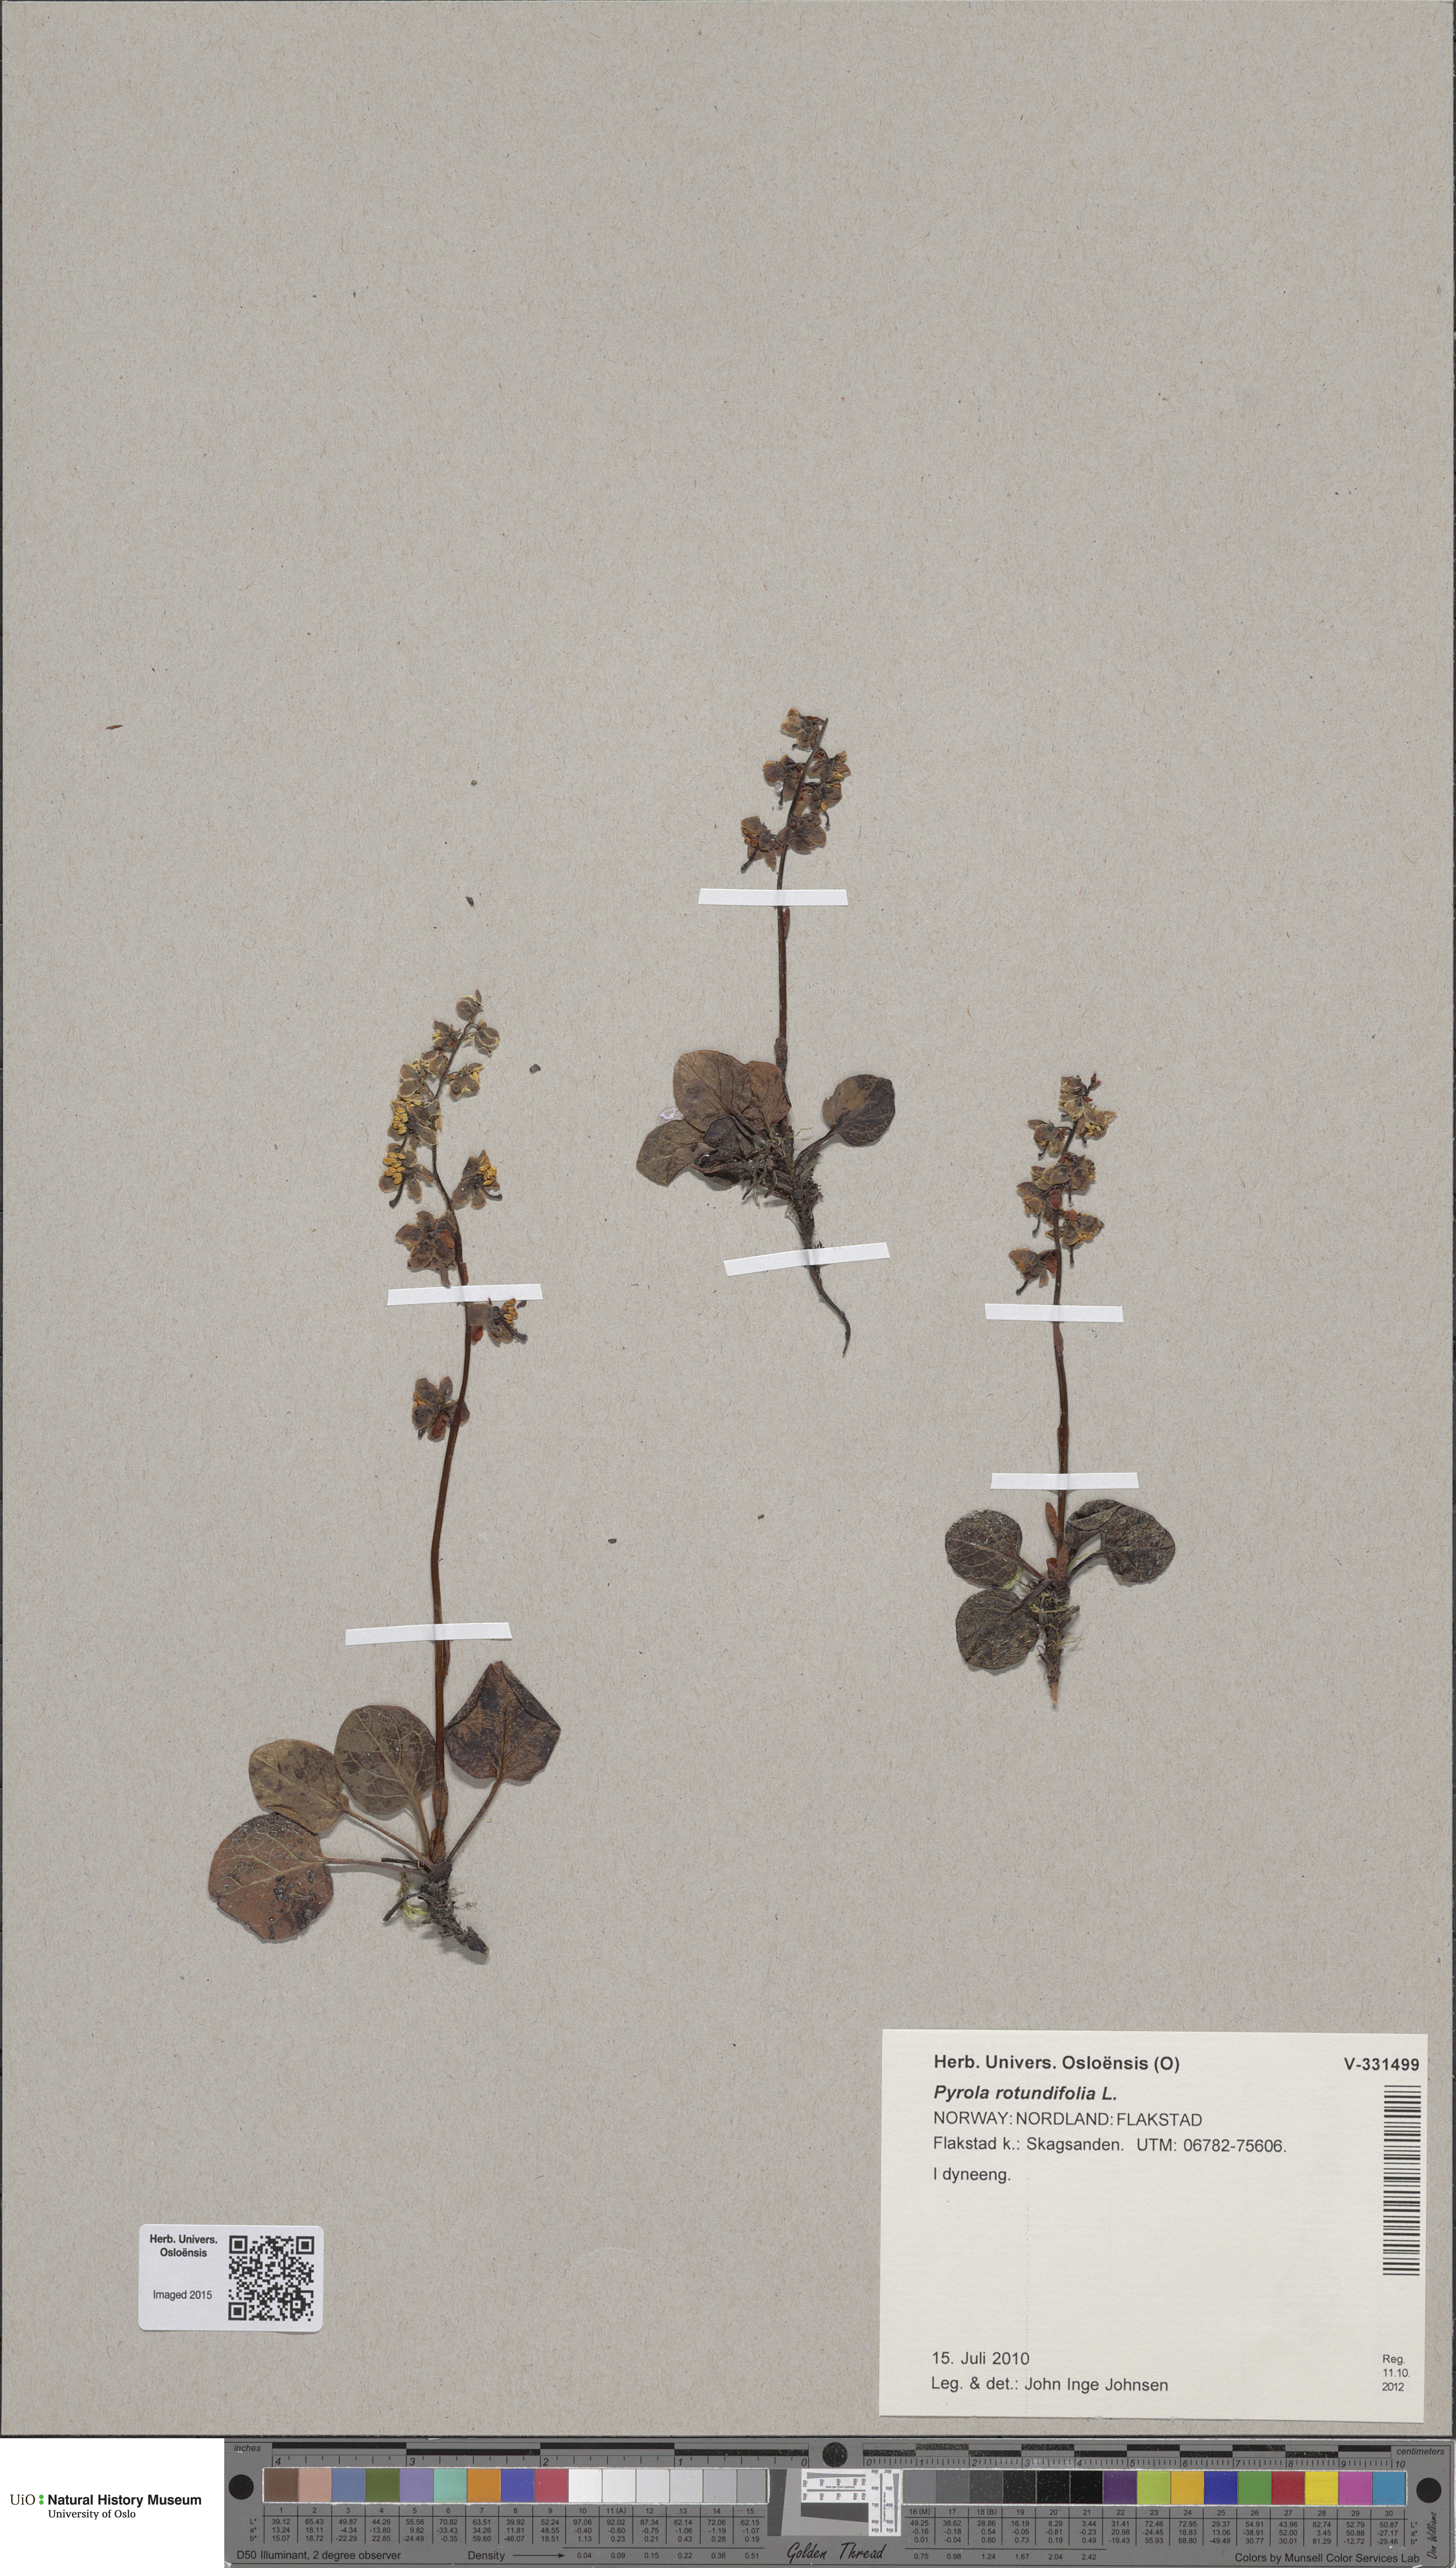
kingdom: Plantae
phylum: Tracheophyta
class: Magnoliopsida
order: Ericales
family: Ericaceae
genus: Pyrola
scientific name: Pyrola rotundifolia
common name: Round-leaved wintergreen
